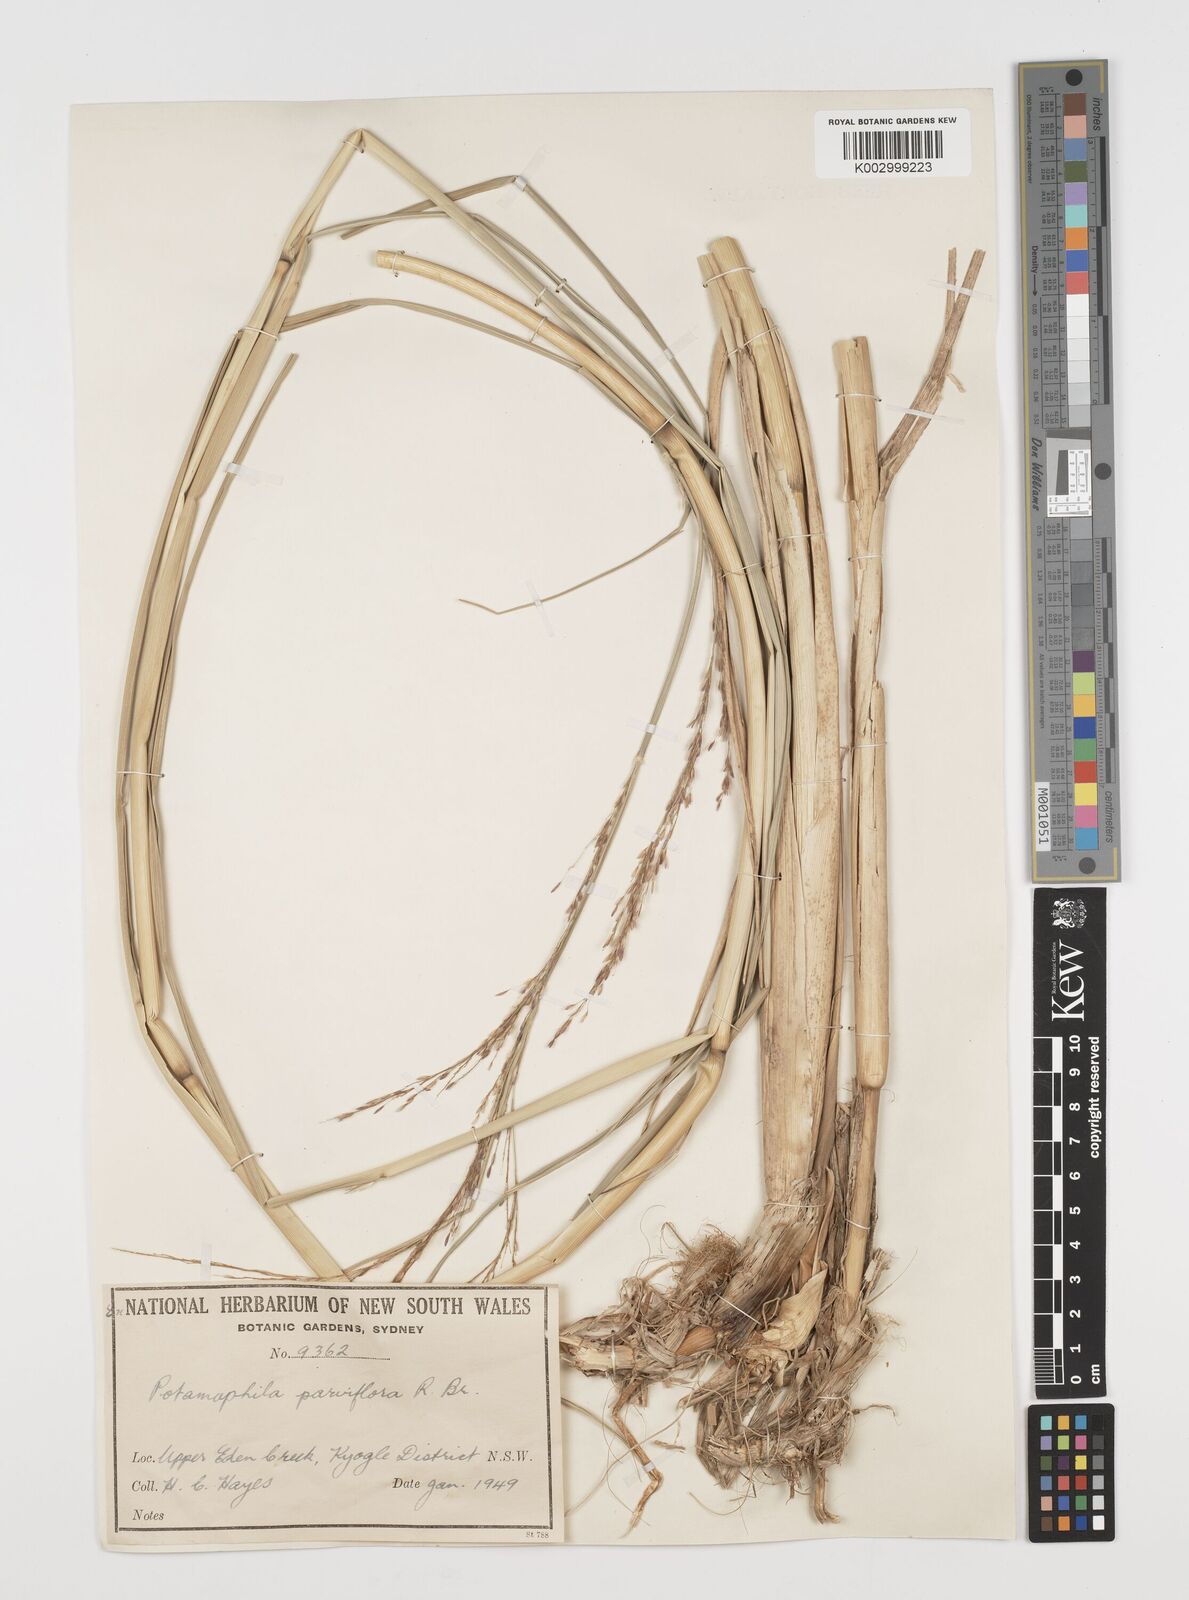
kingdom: Plantae
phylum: Tracheophyta
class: Magnoliopsida
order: Caryophyllales
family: Microteaceae
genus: Microtea
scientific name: Microtea maypurensis
